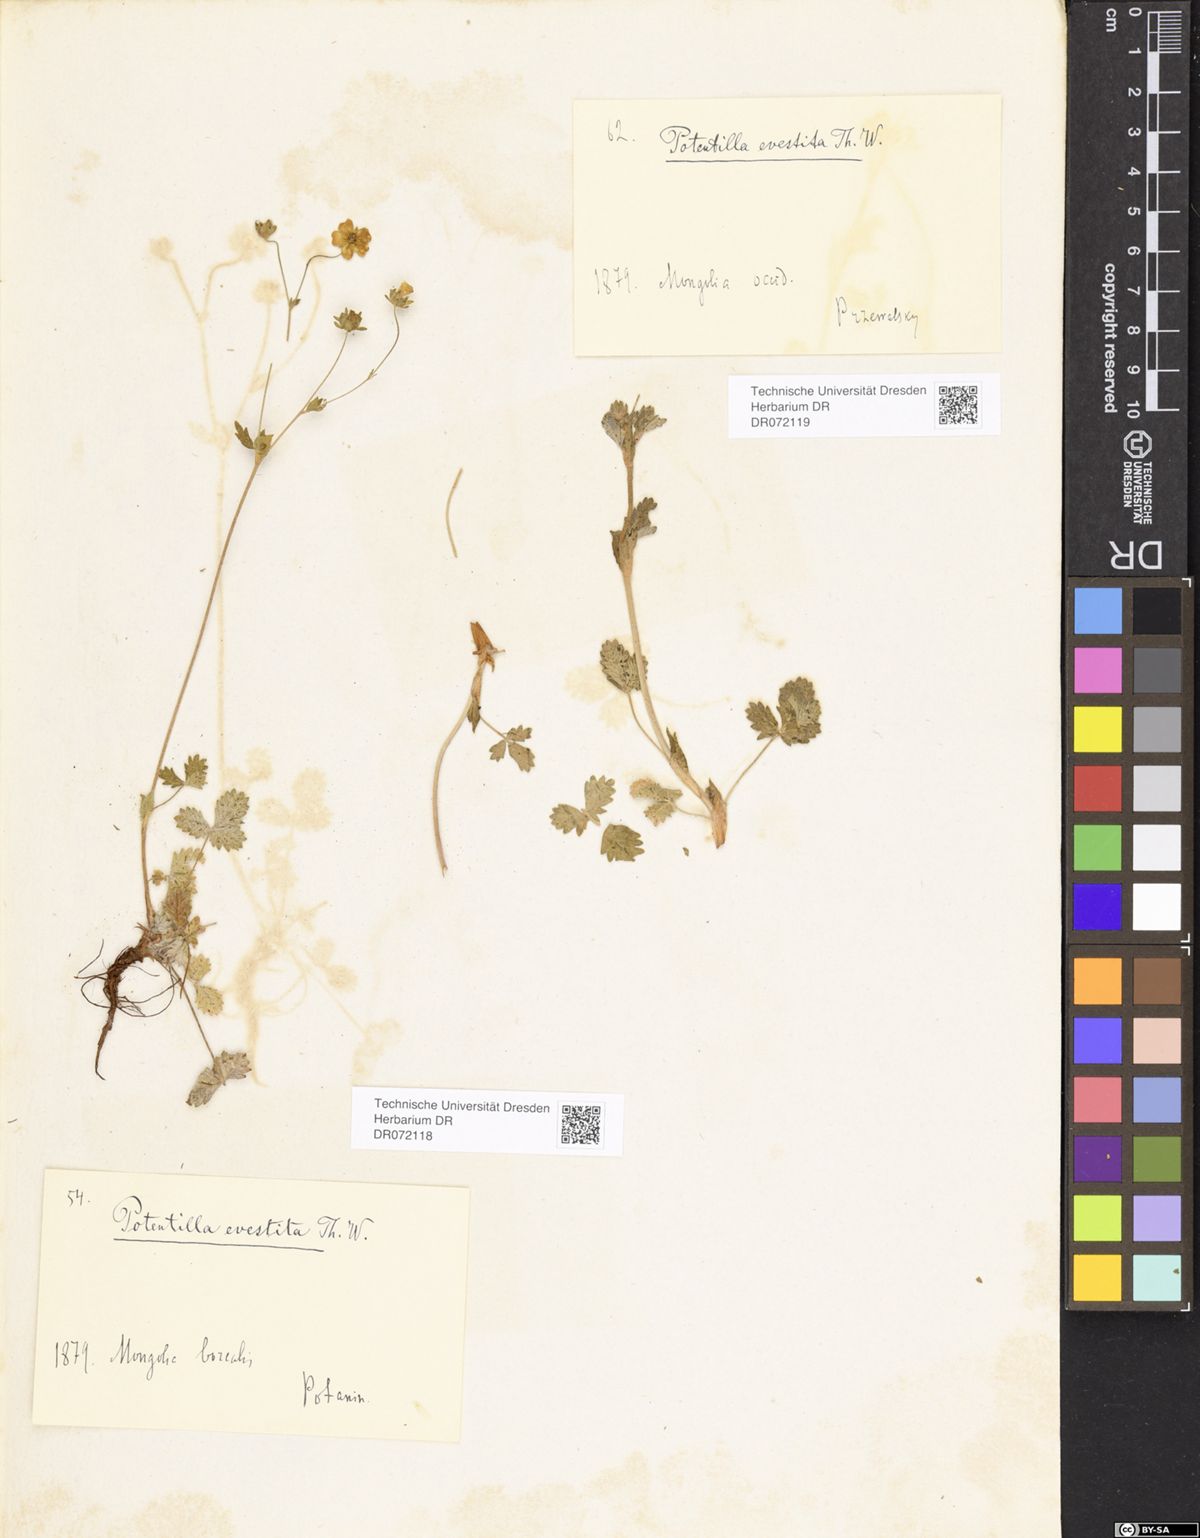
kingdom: Plantae
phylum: Tracheophyta
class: Magnoliopsida
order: Rosales
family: Rosaceae
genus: Potentilla
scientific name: Potentilla evestita
